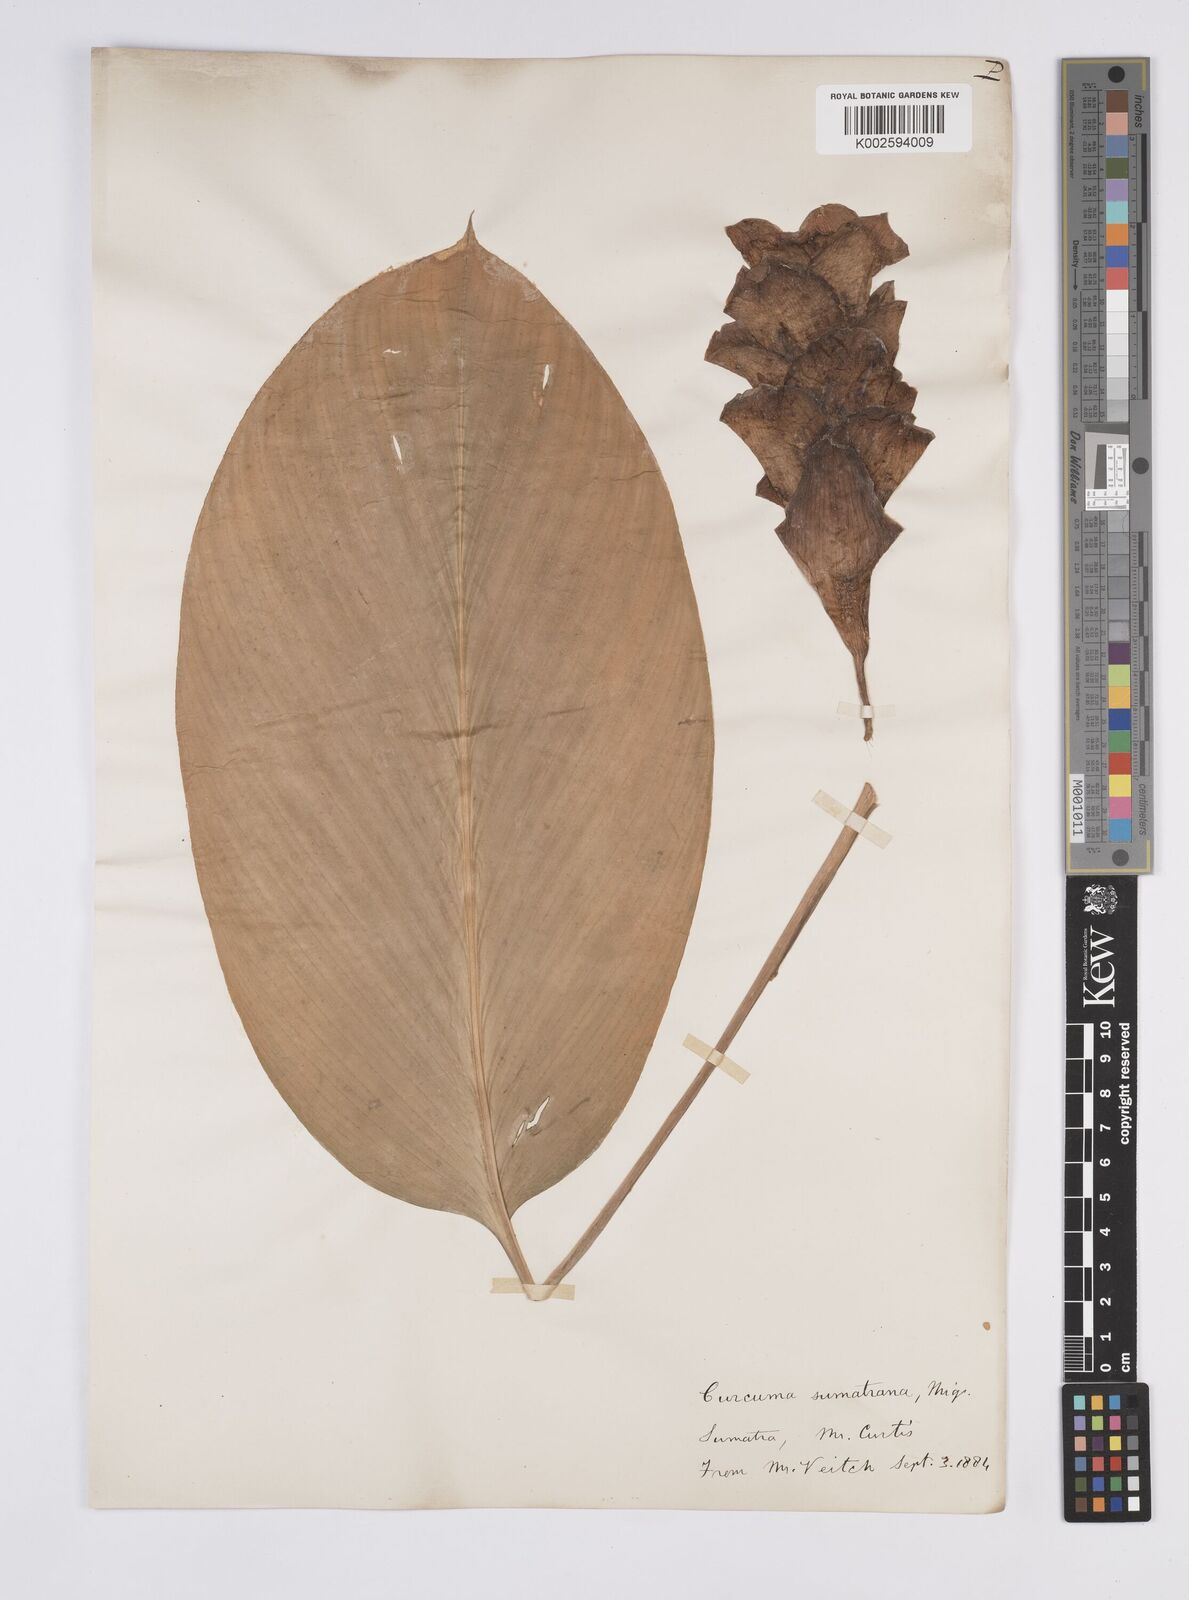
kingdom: Plantae
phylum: Tracheophyta
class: Liliopsida
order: Zingiberales
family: Zingiberaceae
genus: Curcuma
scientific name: Curcuma sumatrana
